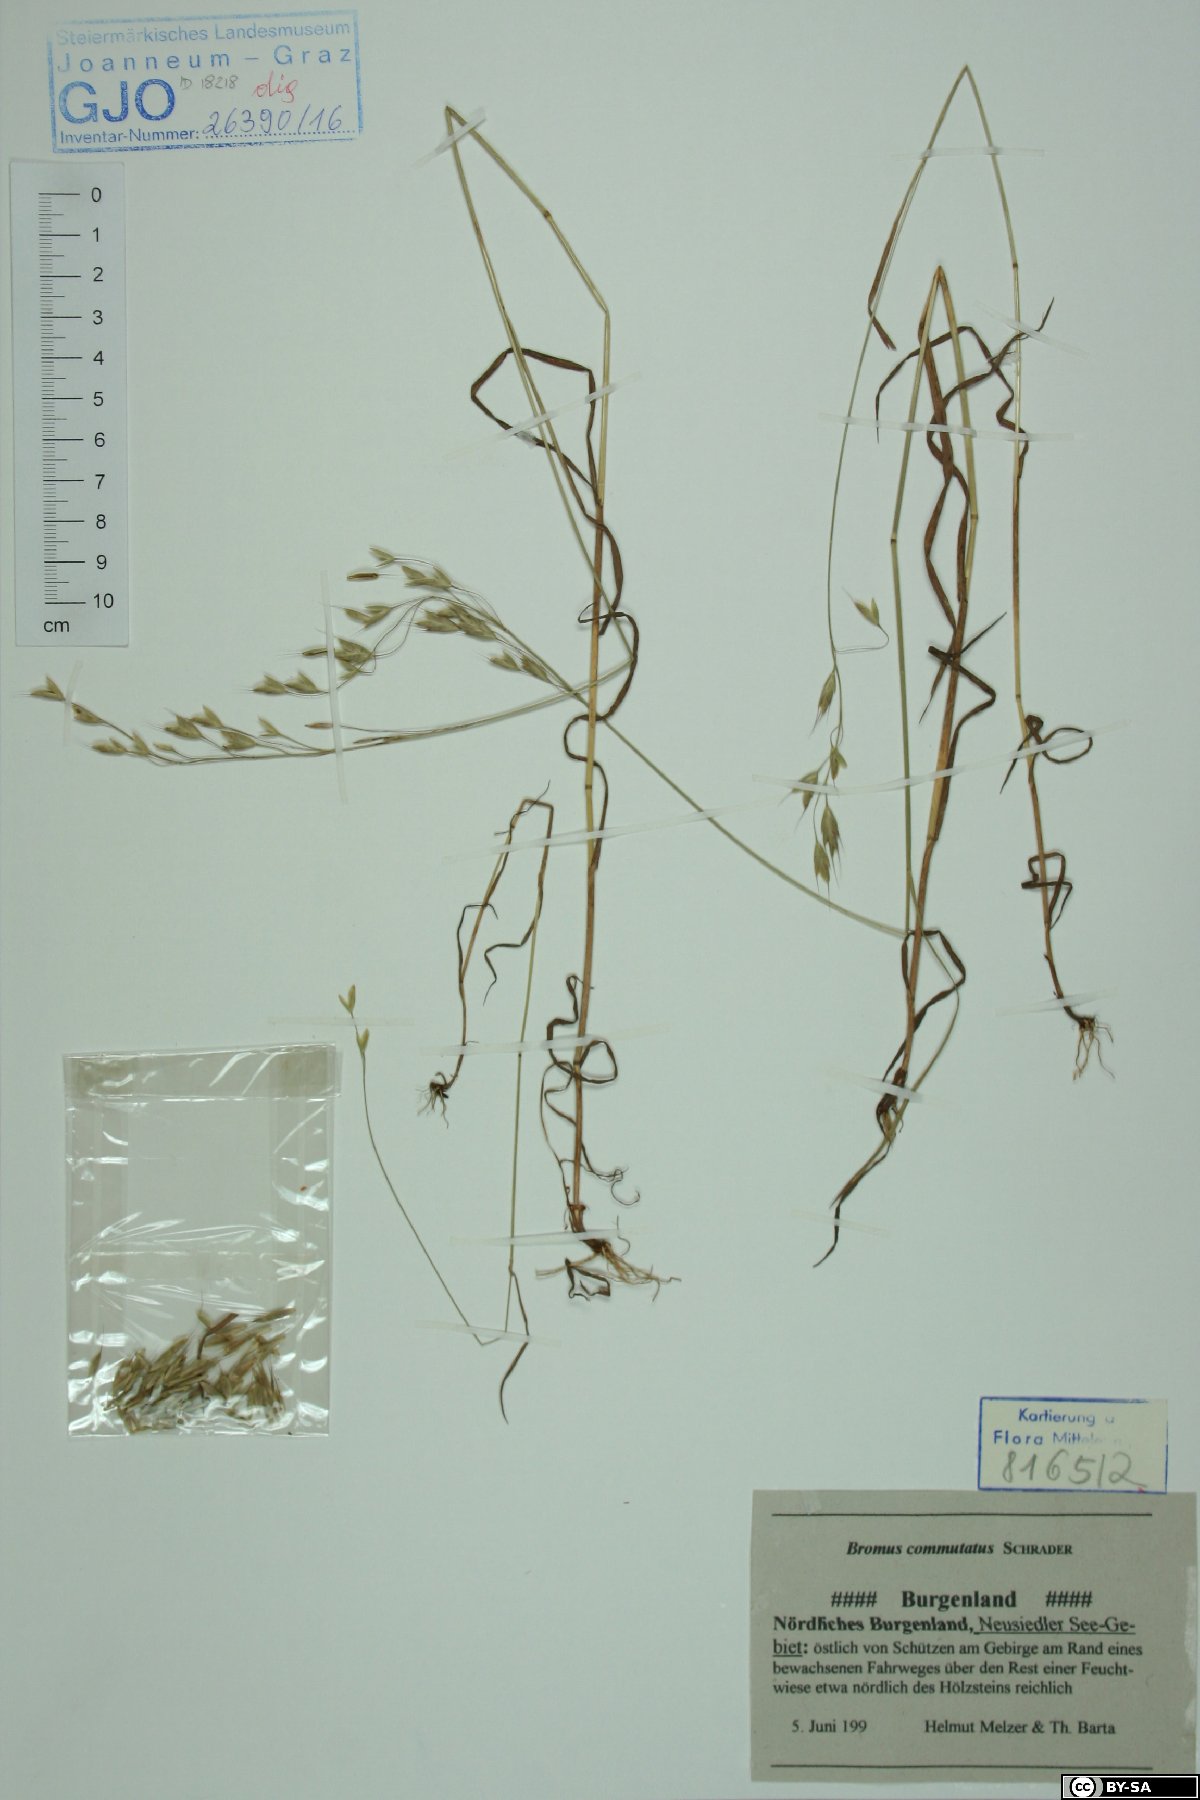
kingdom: Plantae
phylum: Tracheophyta
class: Liliopsida
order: Poales
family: Poaceae
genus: Bromus
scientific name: Bromus commutatus
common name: Meadow brome
